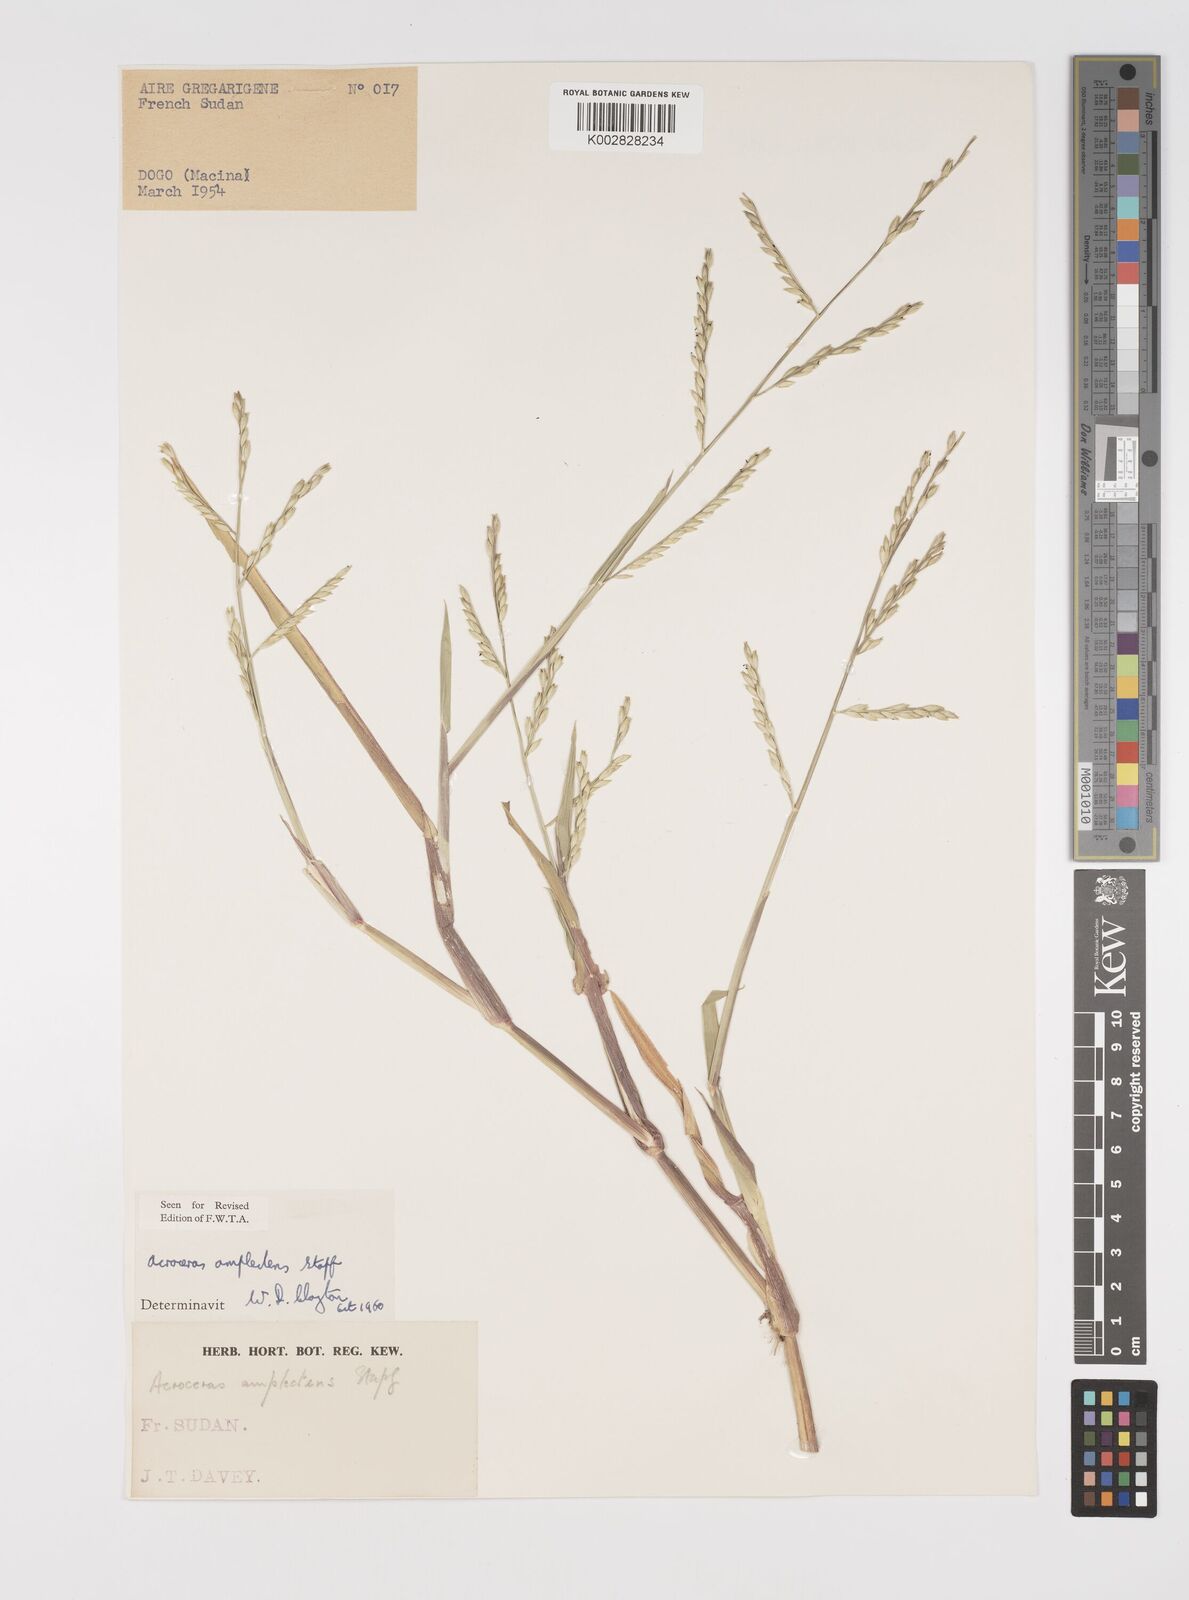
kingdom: Plantae
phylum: Tracheophyta
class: Liliopsida
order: Poales
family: Poaceae
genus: Acroceras
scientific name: Acroceras amplectens
